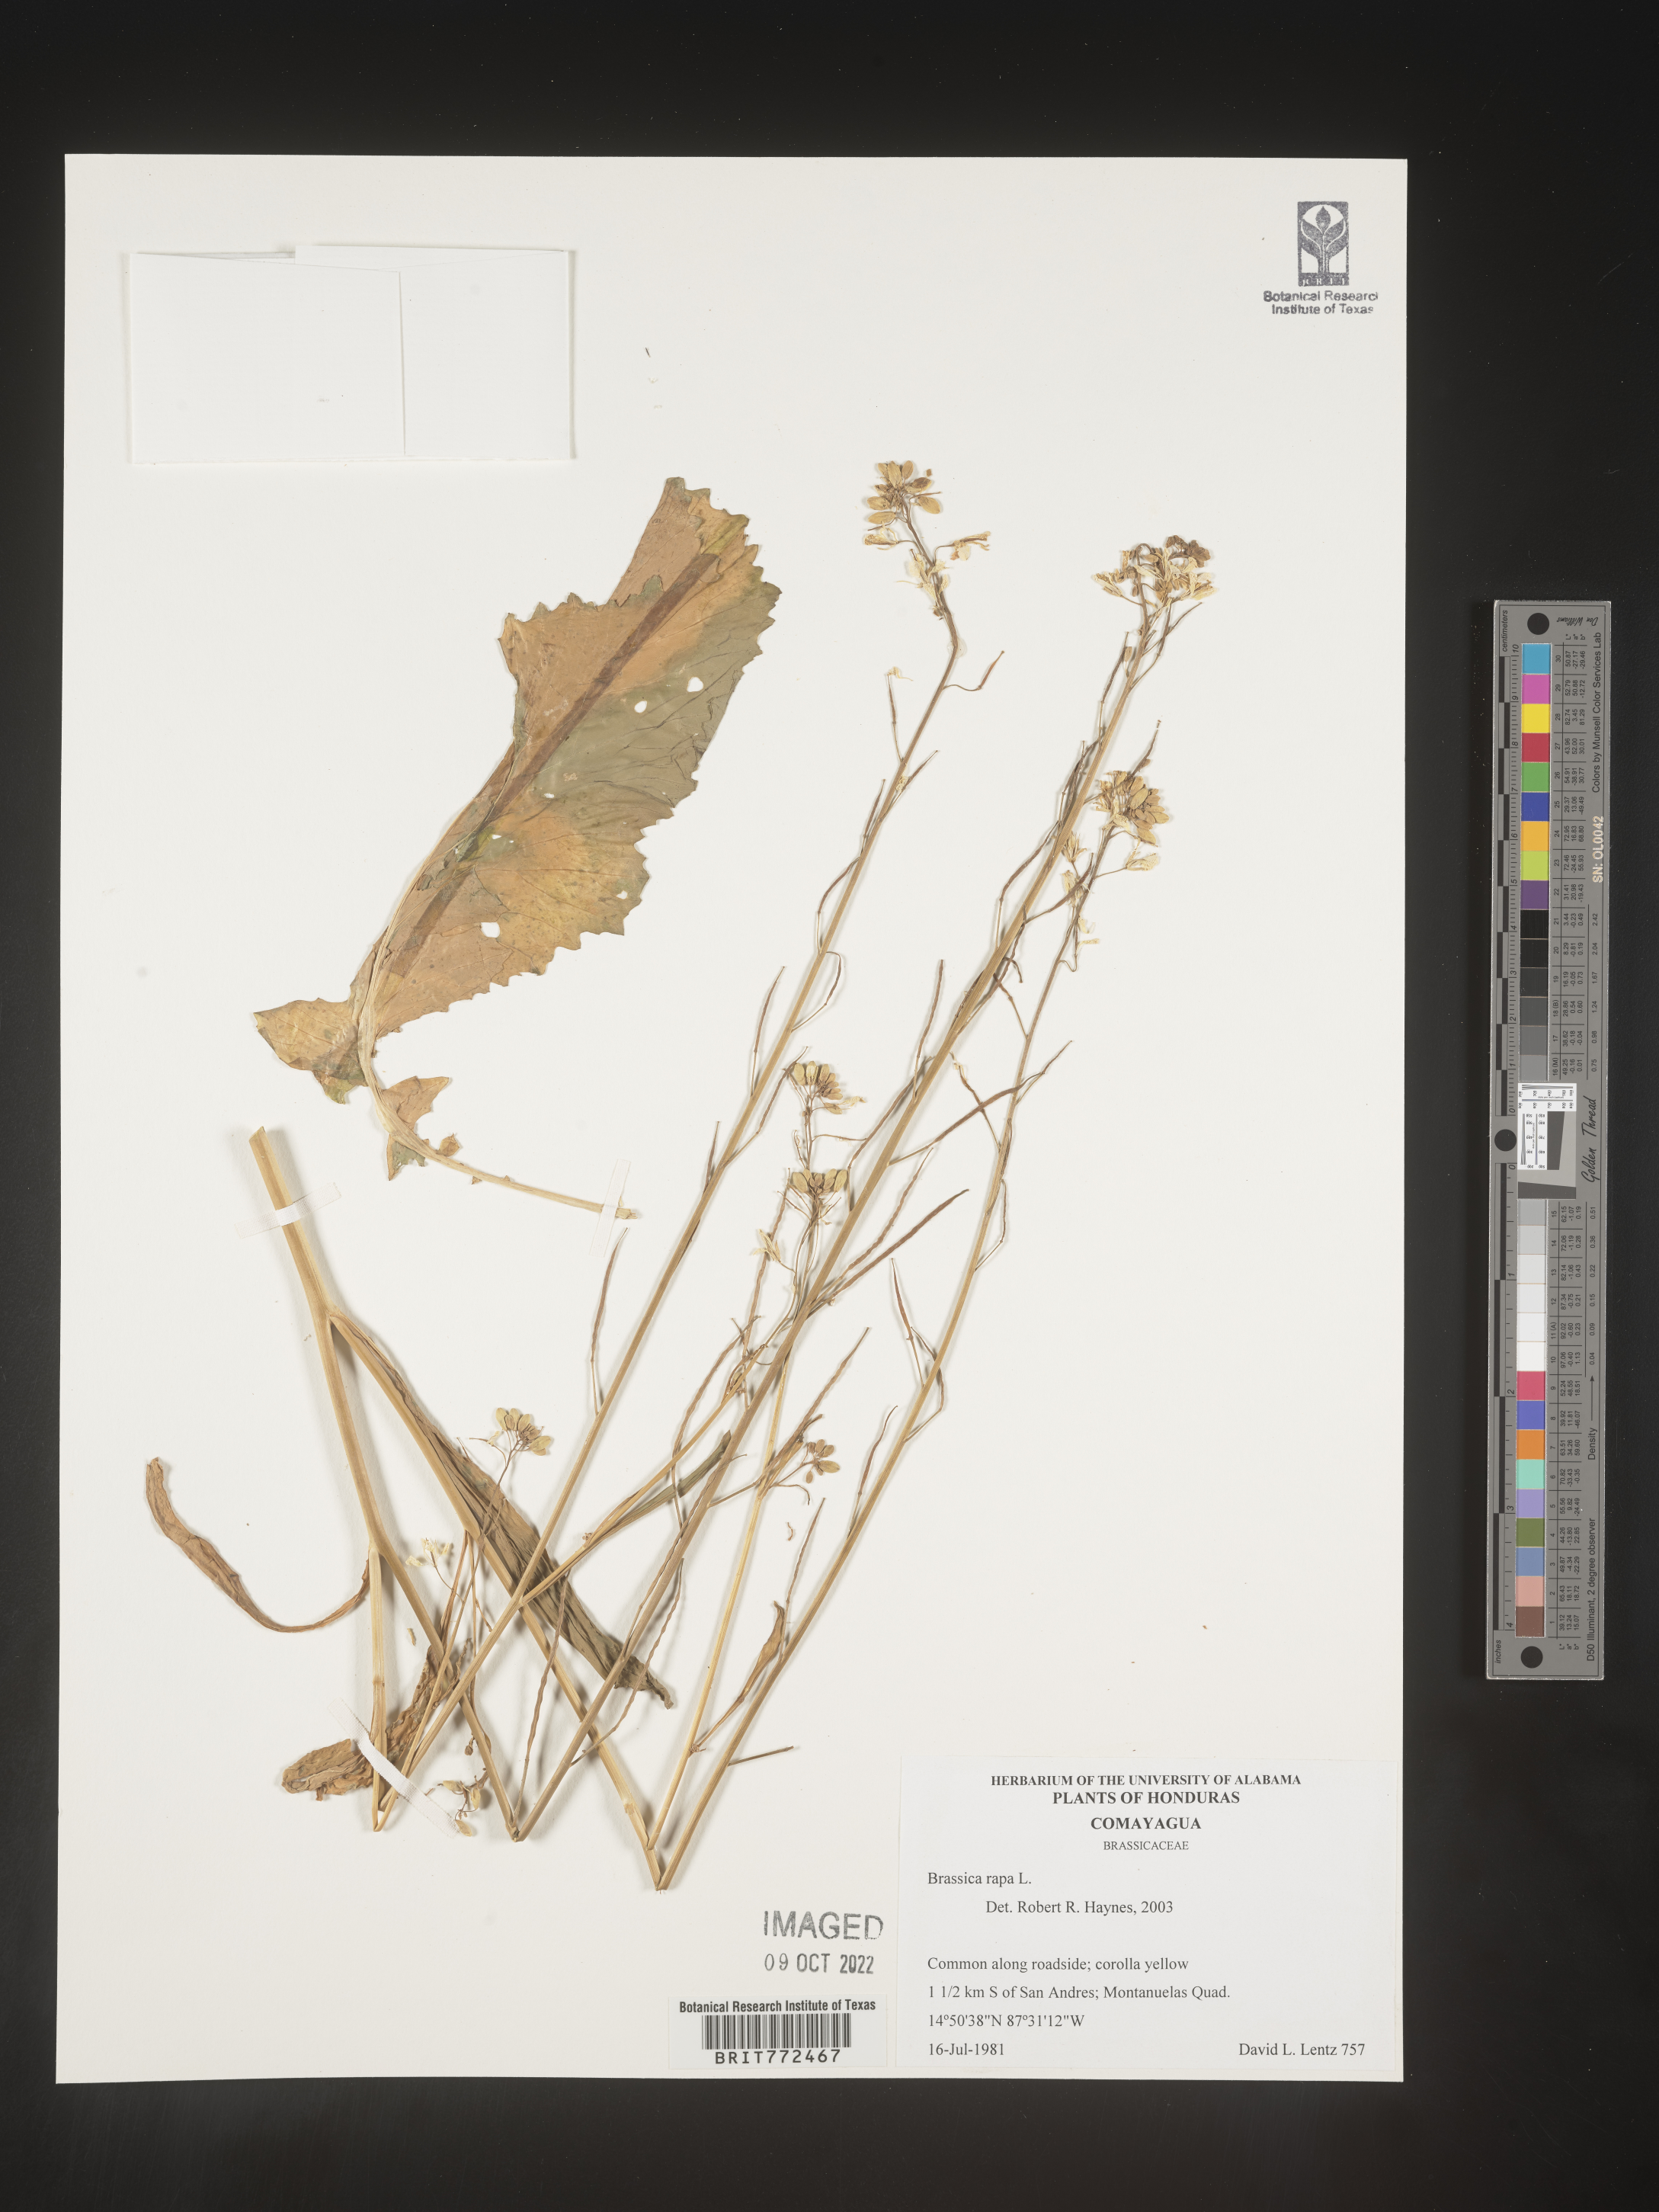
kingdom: Plantae
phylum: Tracheophyta
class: Magnoliopsida
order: Brassicales
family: Brassicaceae
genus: Brassica
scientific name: Brassica
